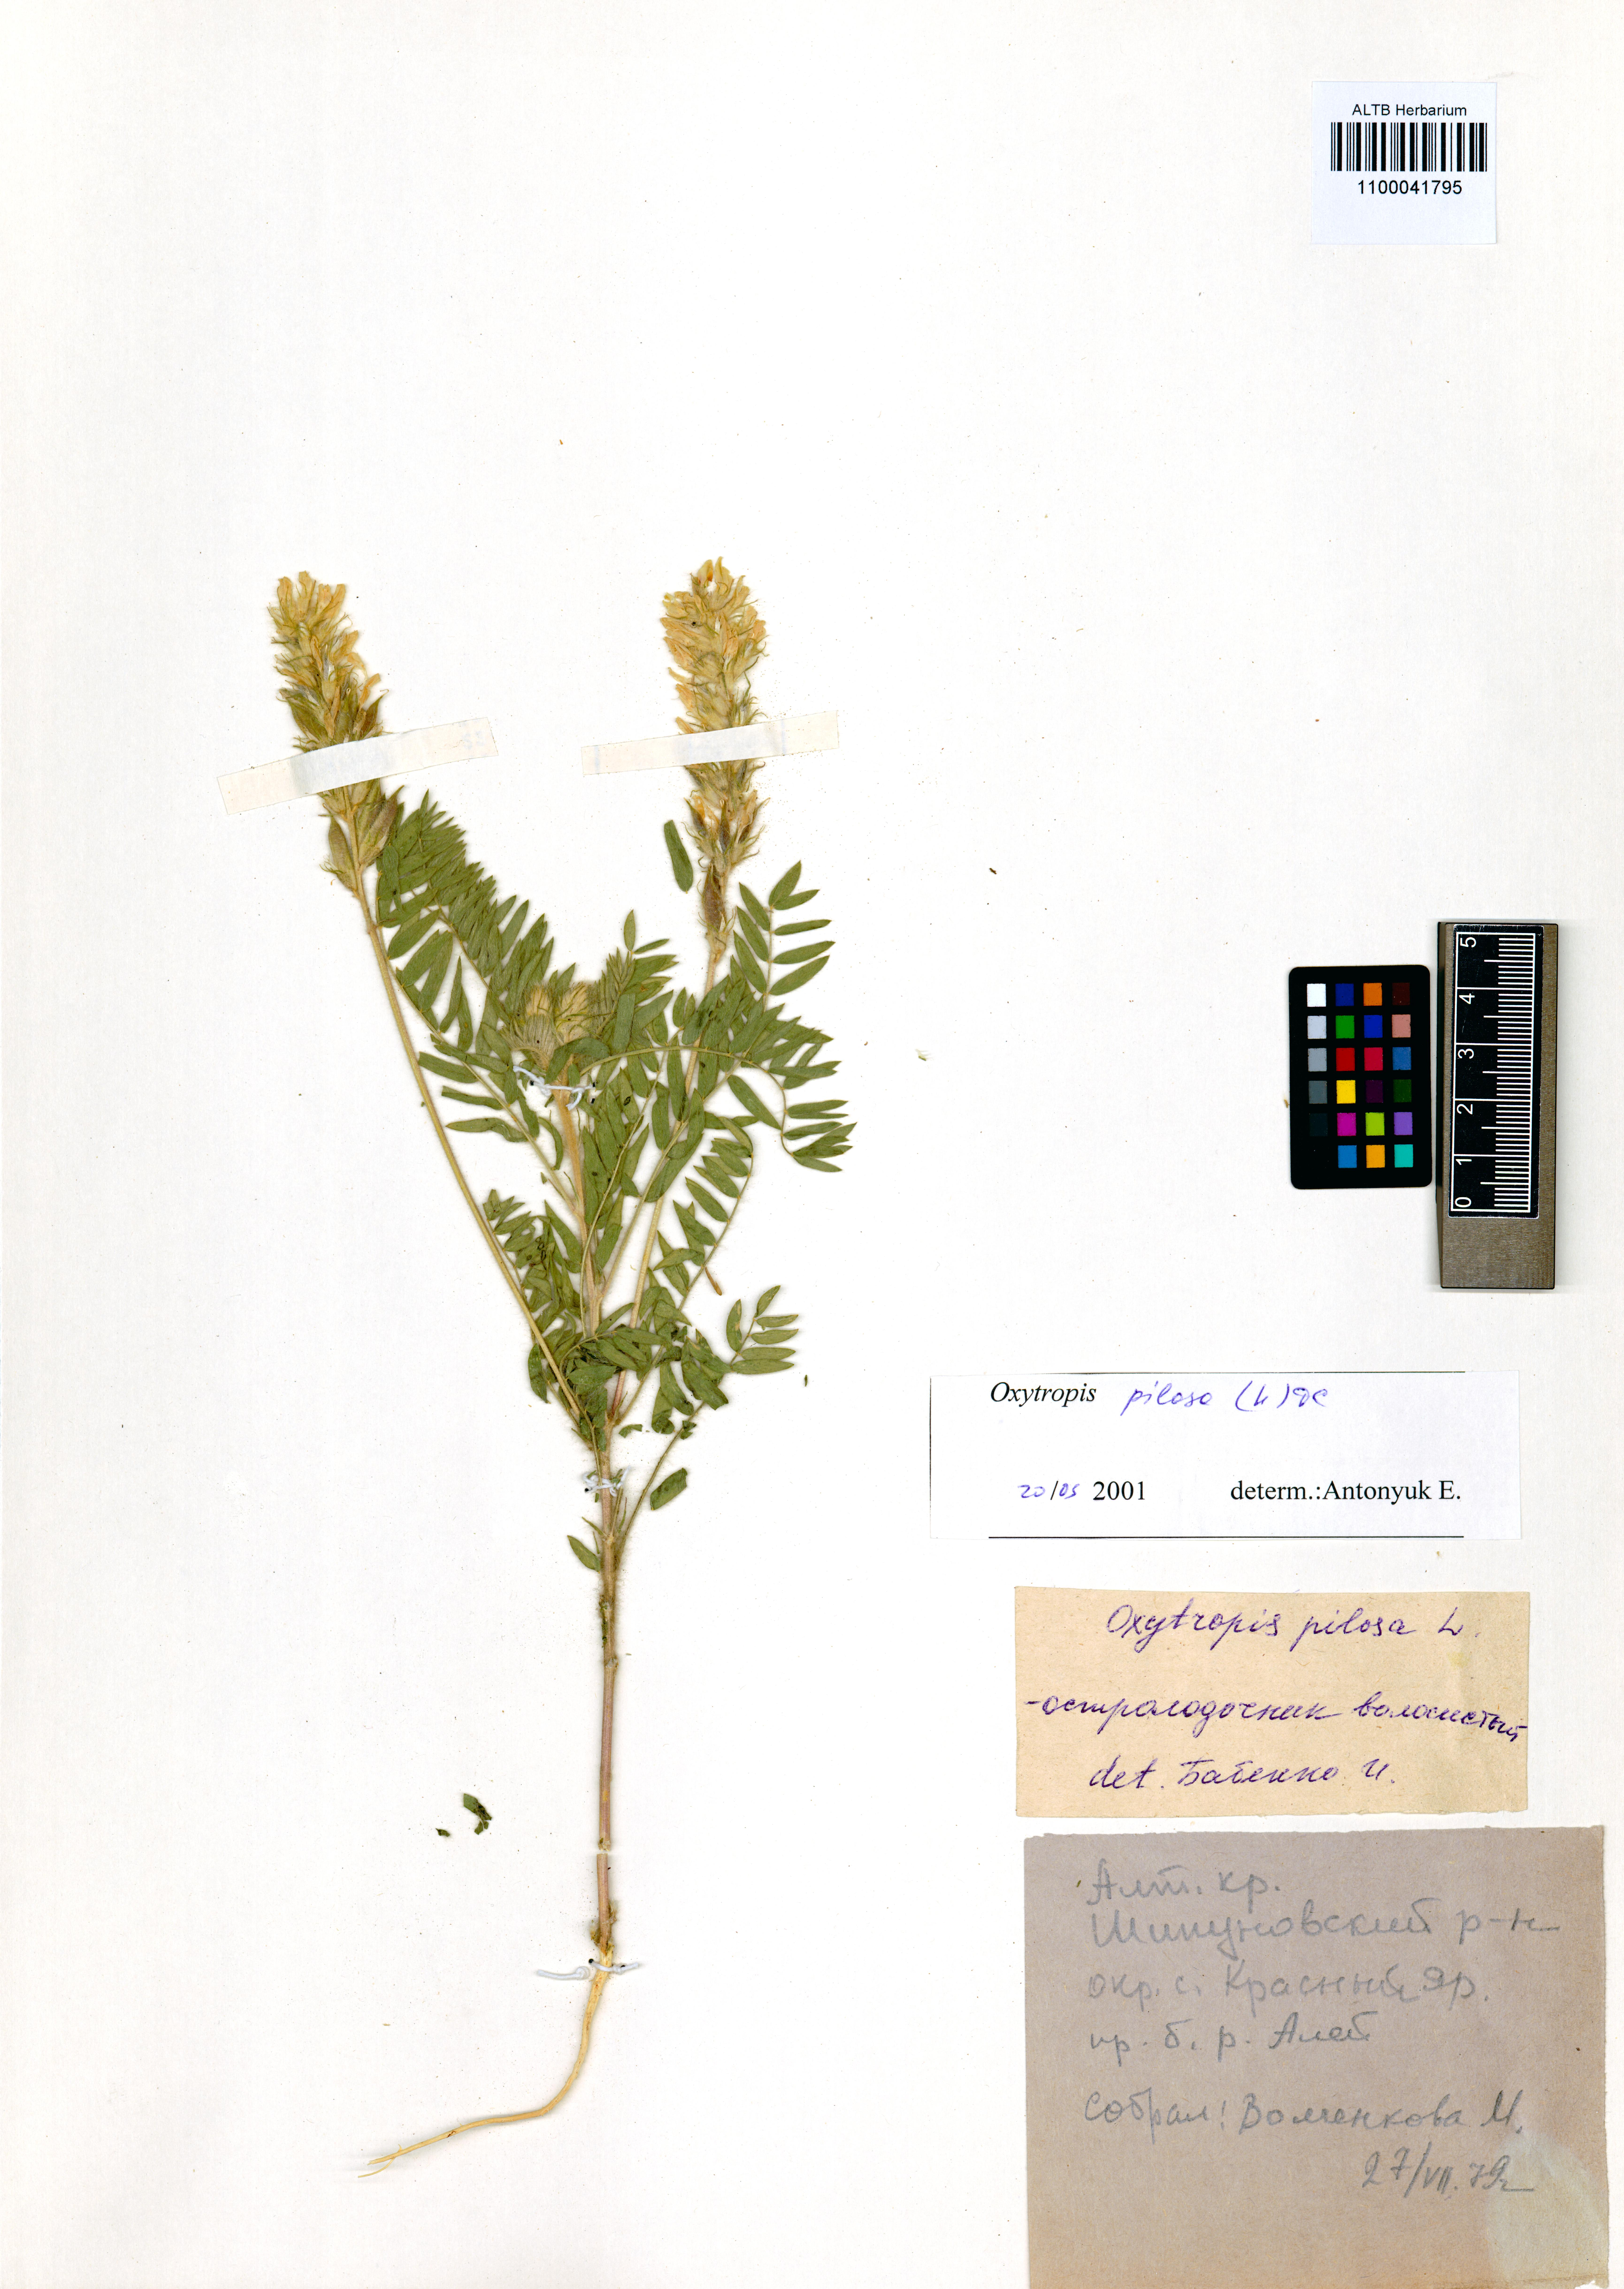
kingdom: Plantae
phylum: Tracheophyta
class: Magnoliopsida
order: Fabales
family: Fabaceae
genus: Oxytropis
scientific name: Oxytropis pilosa
